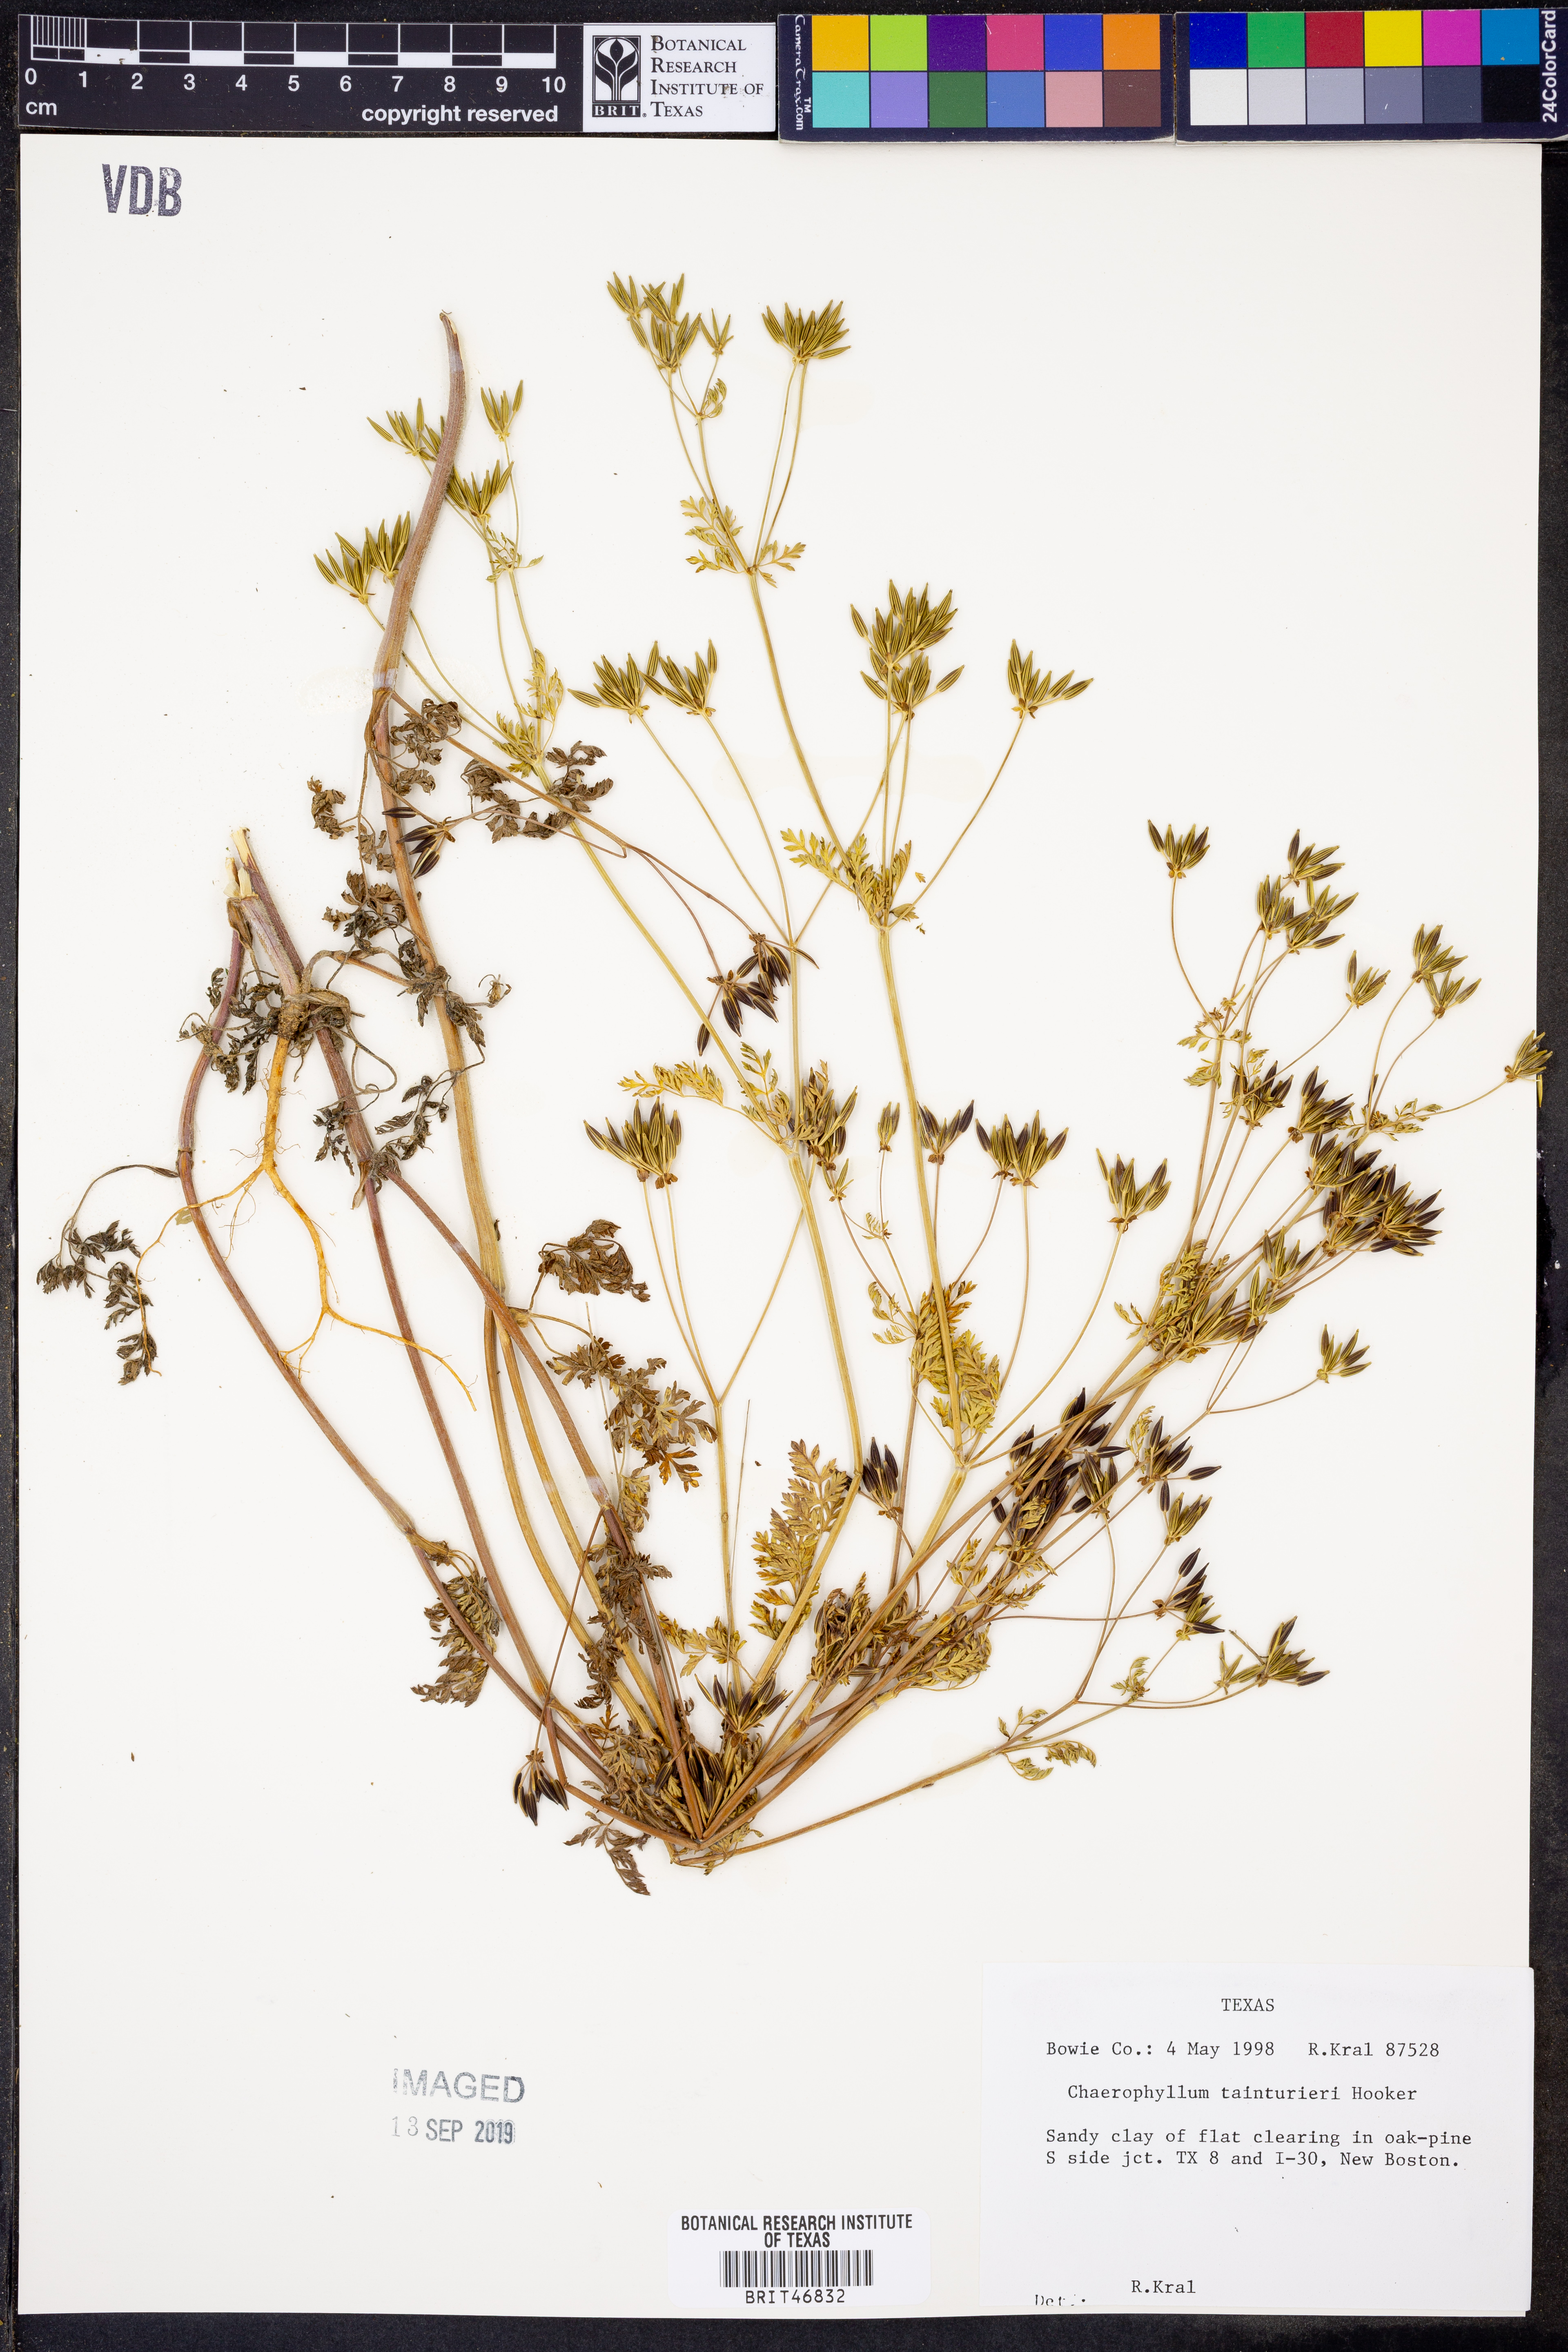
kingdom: Plantae
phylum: Tracheophyta
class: Magnoliopsida
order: Apiales
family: Apiaceae
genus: Chaerophyllum
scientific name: Chaerophyllum tainturieri
